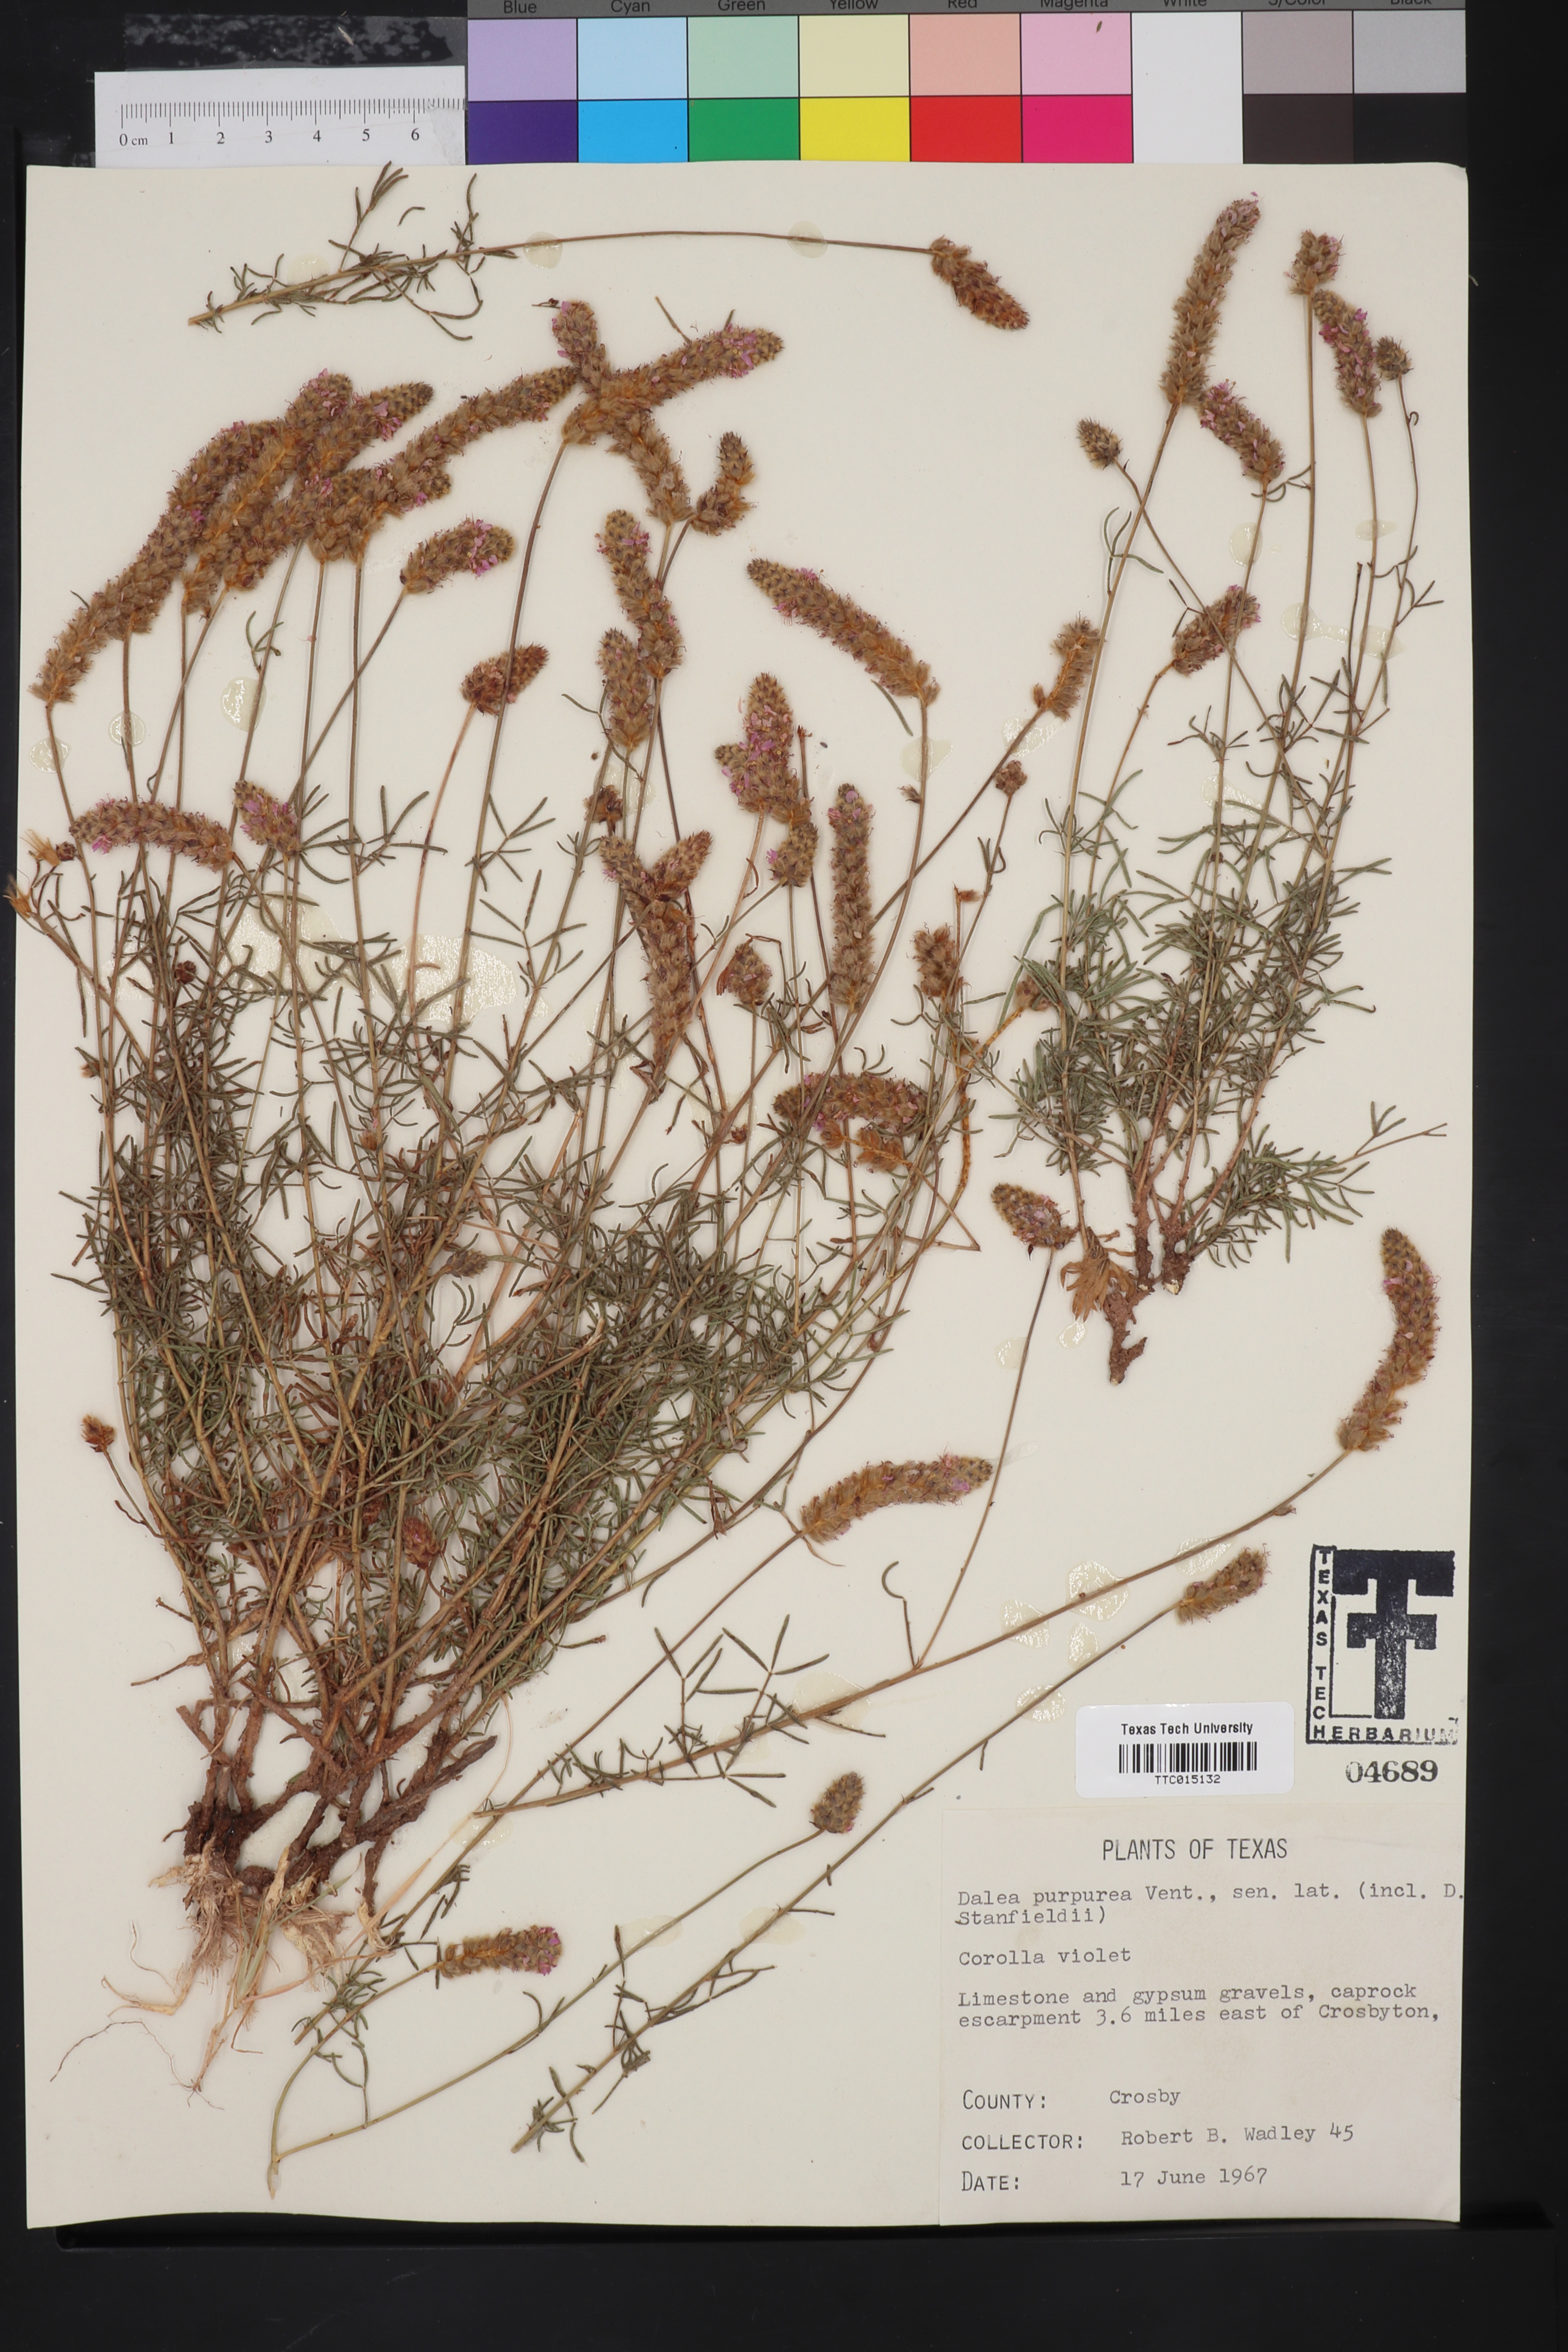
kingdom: Plantae
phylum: Tracheophyta
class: Magnoliopsida
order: Fabales
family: Fabaceae
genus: Dalea
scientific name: Dalea purpurea
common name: Purple prairie-clover
